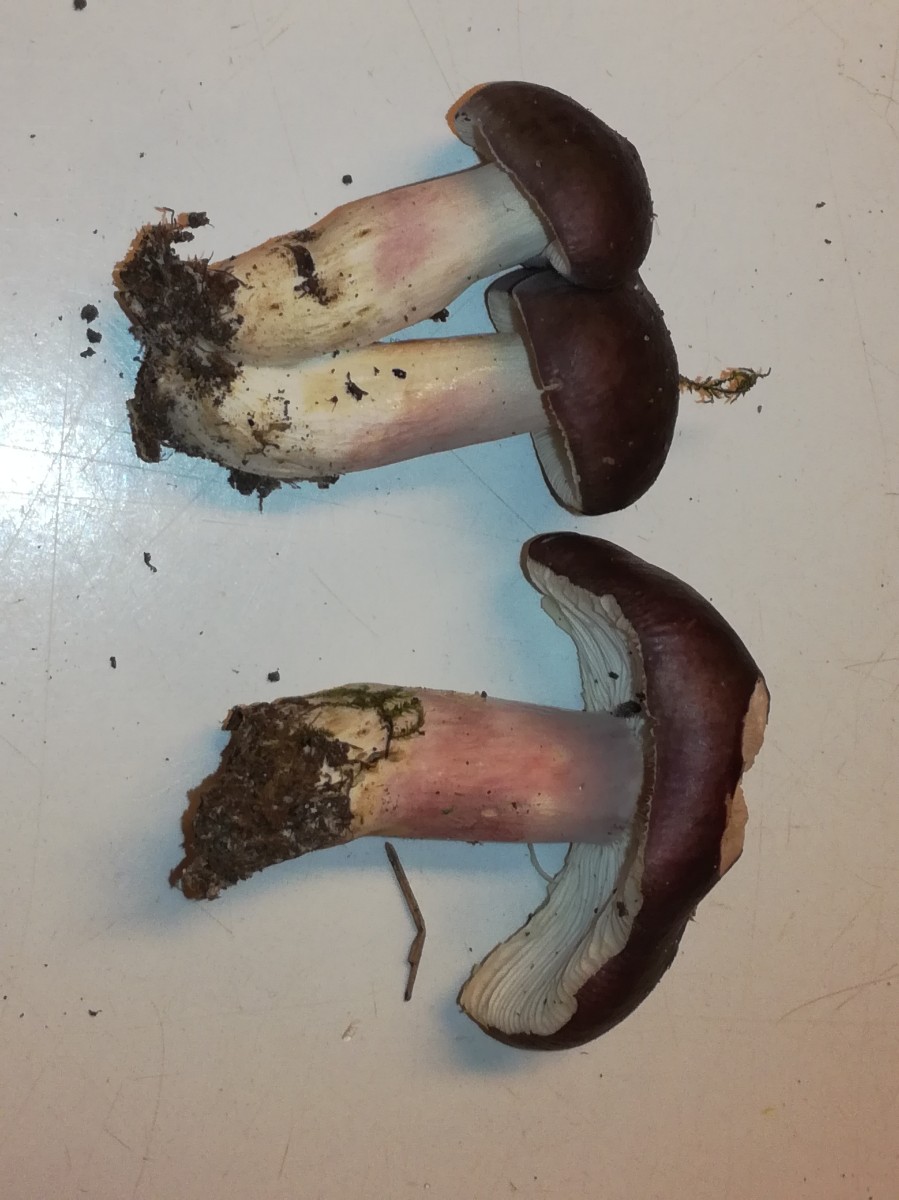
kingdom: Fungi
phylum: Basidiomycota
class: Agaricomycetes
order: Russulales
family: Russulaceae
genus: Russula
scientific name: Russula queletii
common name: Quélets skørhat
